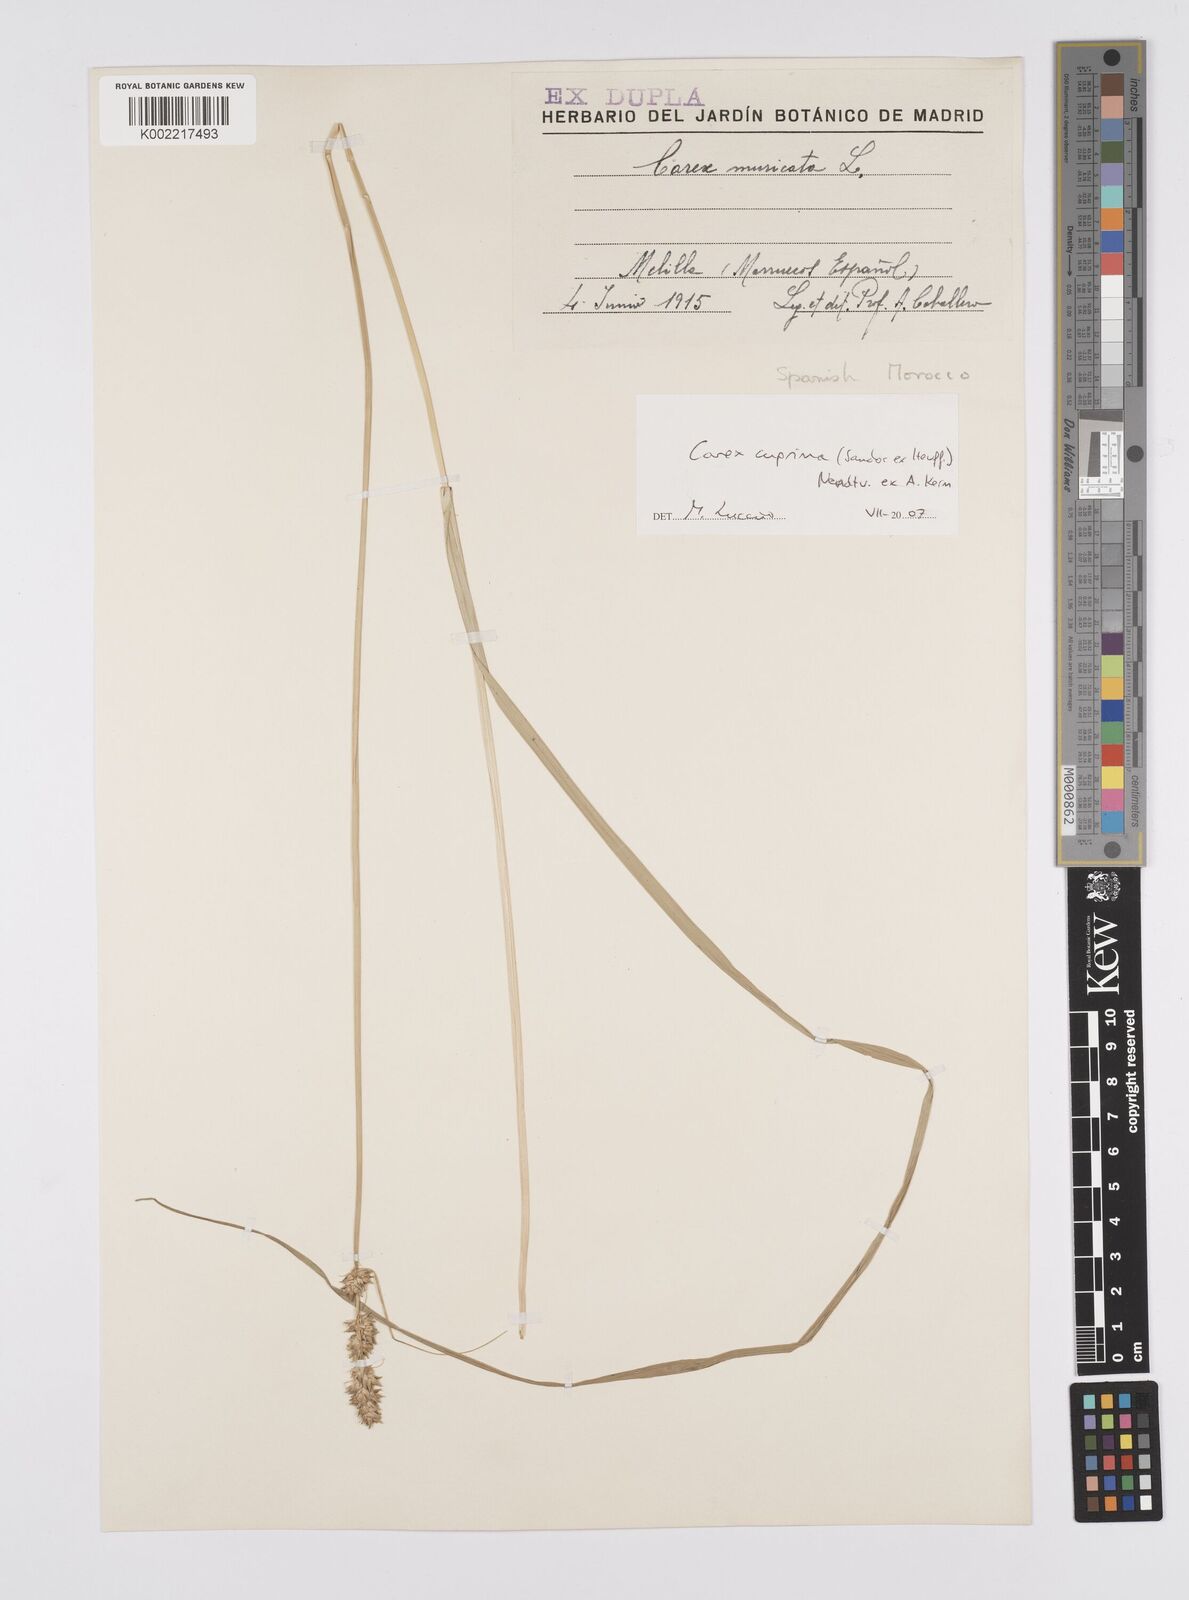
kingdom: Plantae
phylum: Tracheophyta
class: Liliopsida
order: Poales
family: Cyperaceae
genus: Carex
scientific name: Carex leersii
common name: Leers' sedge
